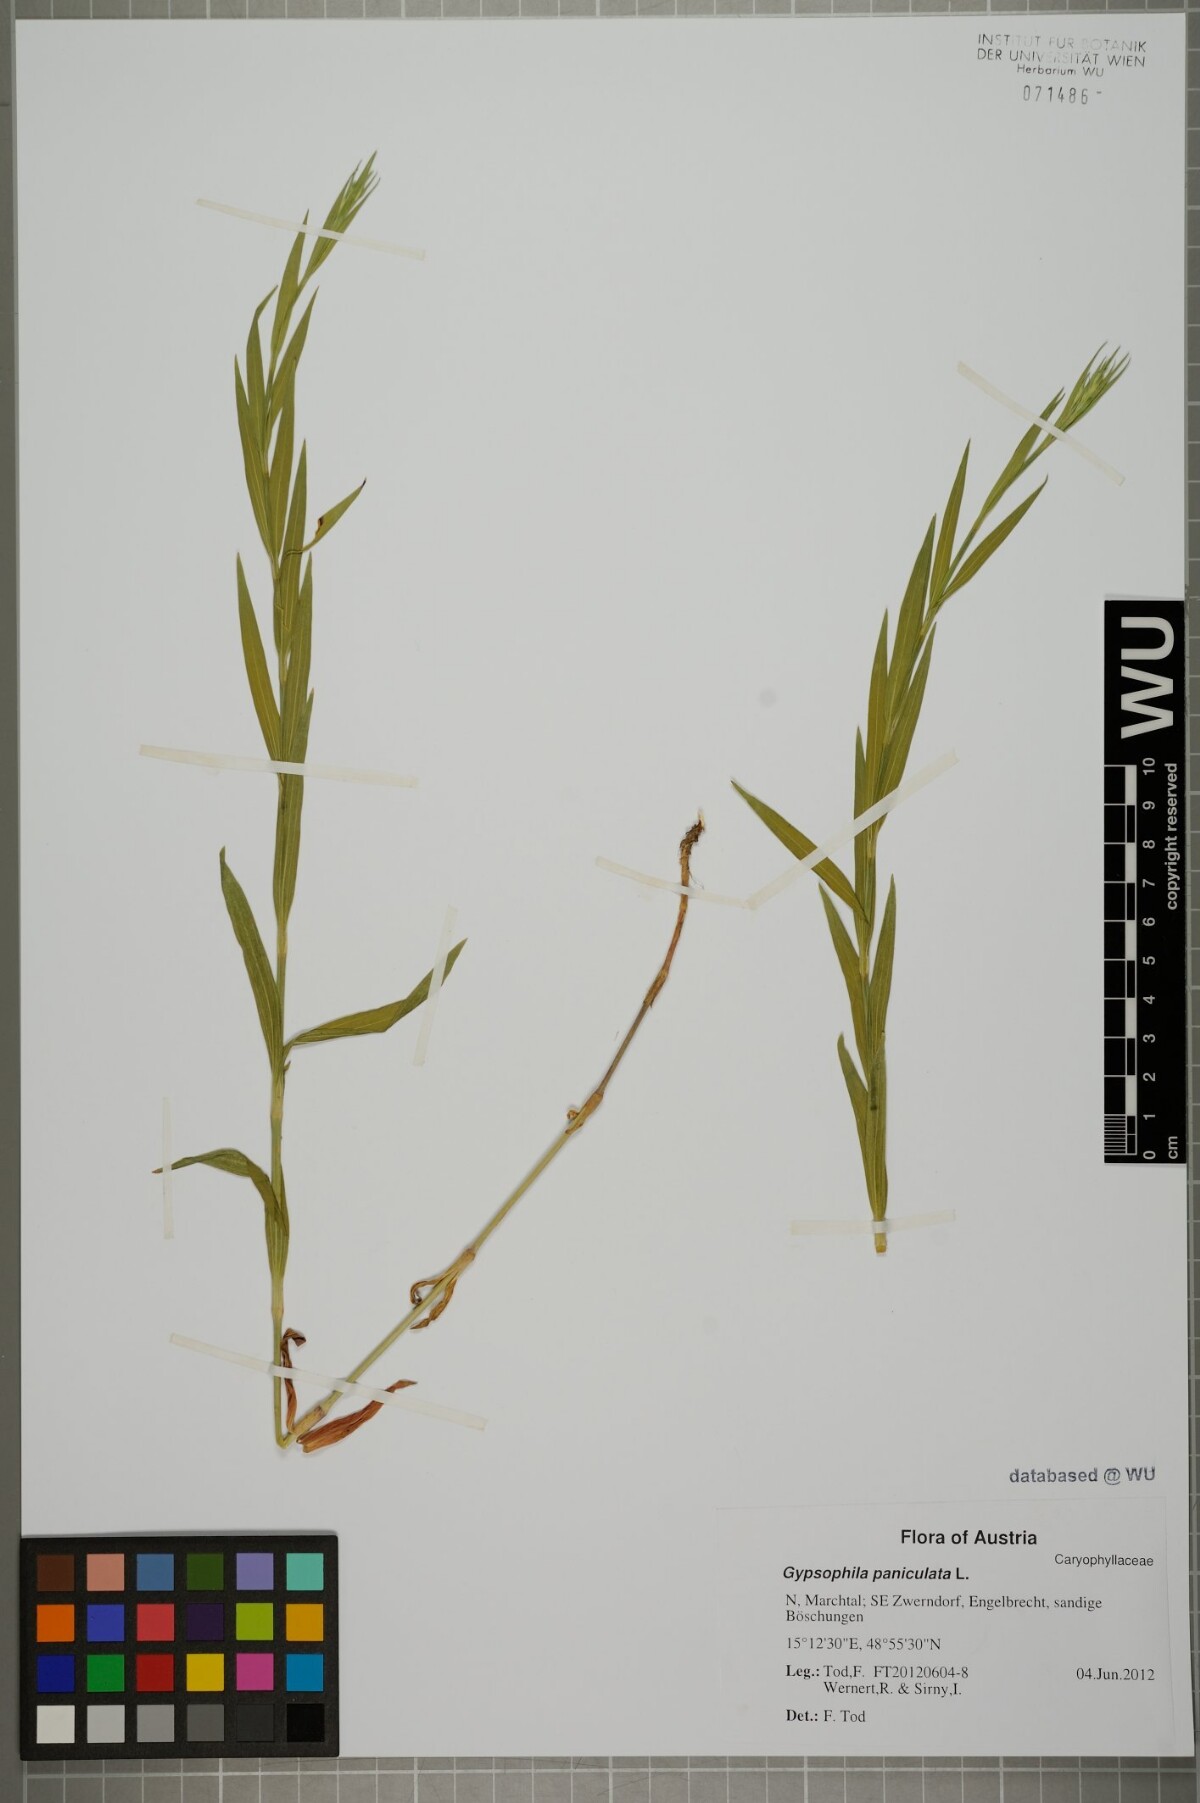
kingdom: Plantae
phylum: Tracheophyta
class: Magnoliopsida
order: Caryophyllales
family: Caryophyllaceae
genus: Gypsophila
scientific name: Gypsophila paniculata
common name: Baby's-breath
